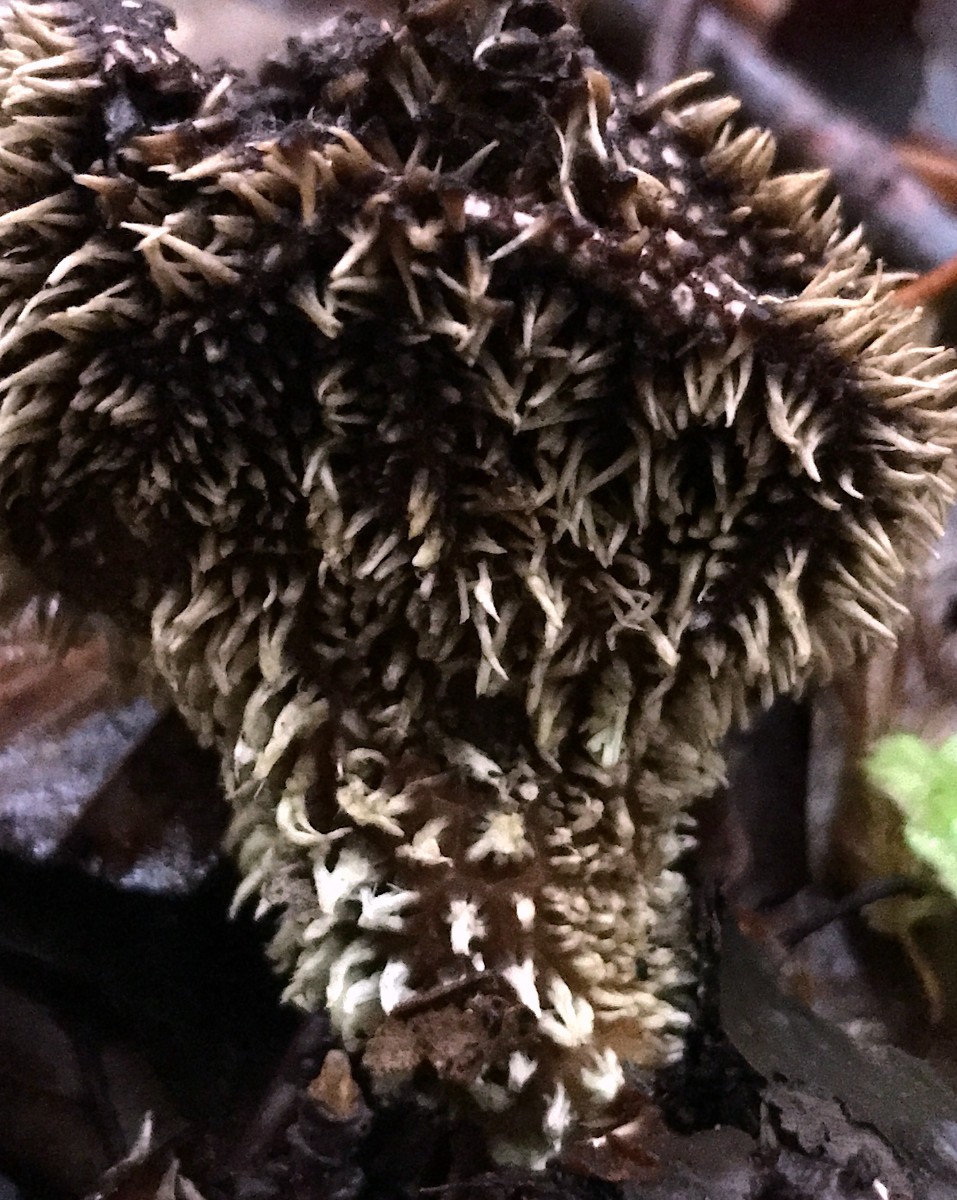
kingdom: Fungi
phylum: Basidiomycota
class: Agaricomycetes
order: Agaricales
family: Lycoperdaceae
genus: Lycoperdon
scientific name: Lycoperdon echinatum
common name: pindsvine-støvbold
